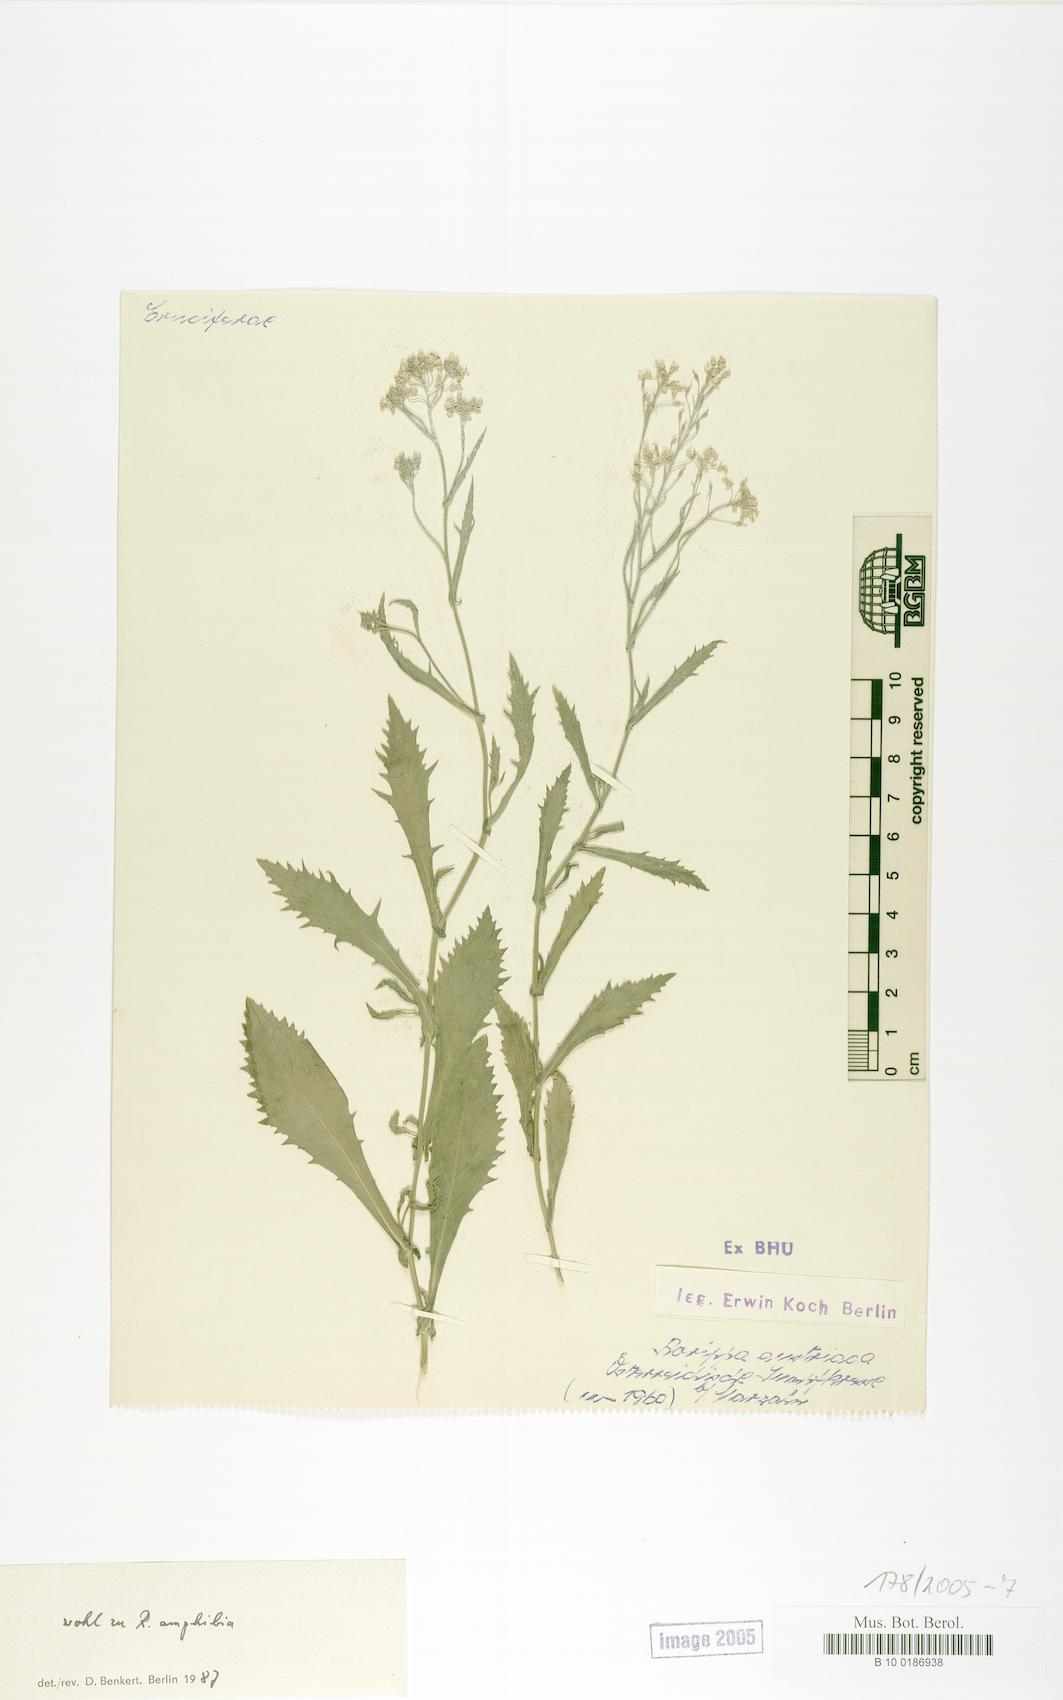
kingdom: Plantae
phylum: Tracheophyta
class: Magnoliopsida
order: Brassicales
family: Brassicaceae
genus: Rorippa
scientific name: Rorippa austriaca
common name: Austrian yellow-cress
